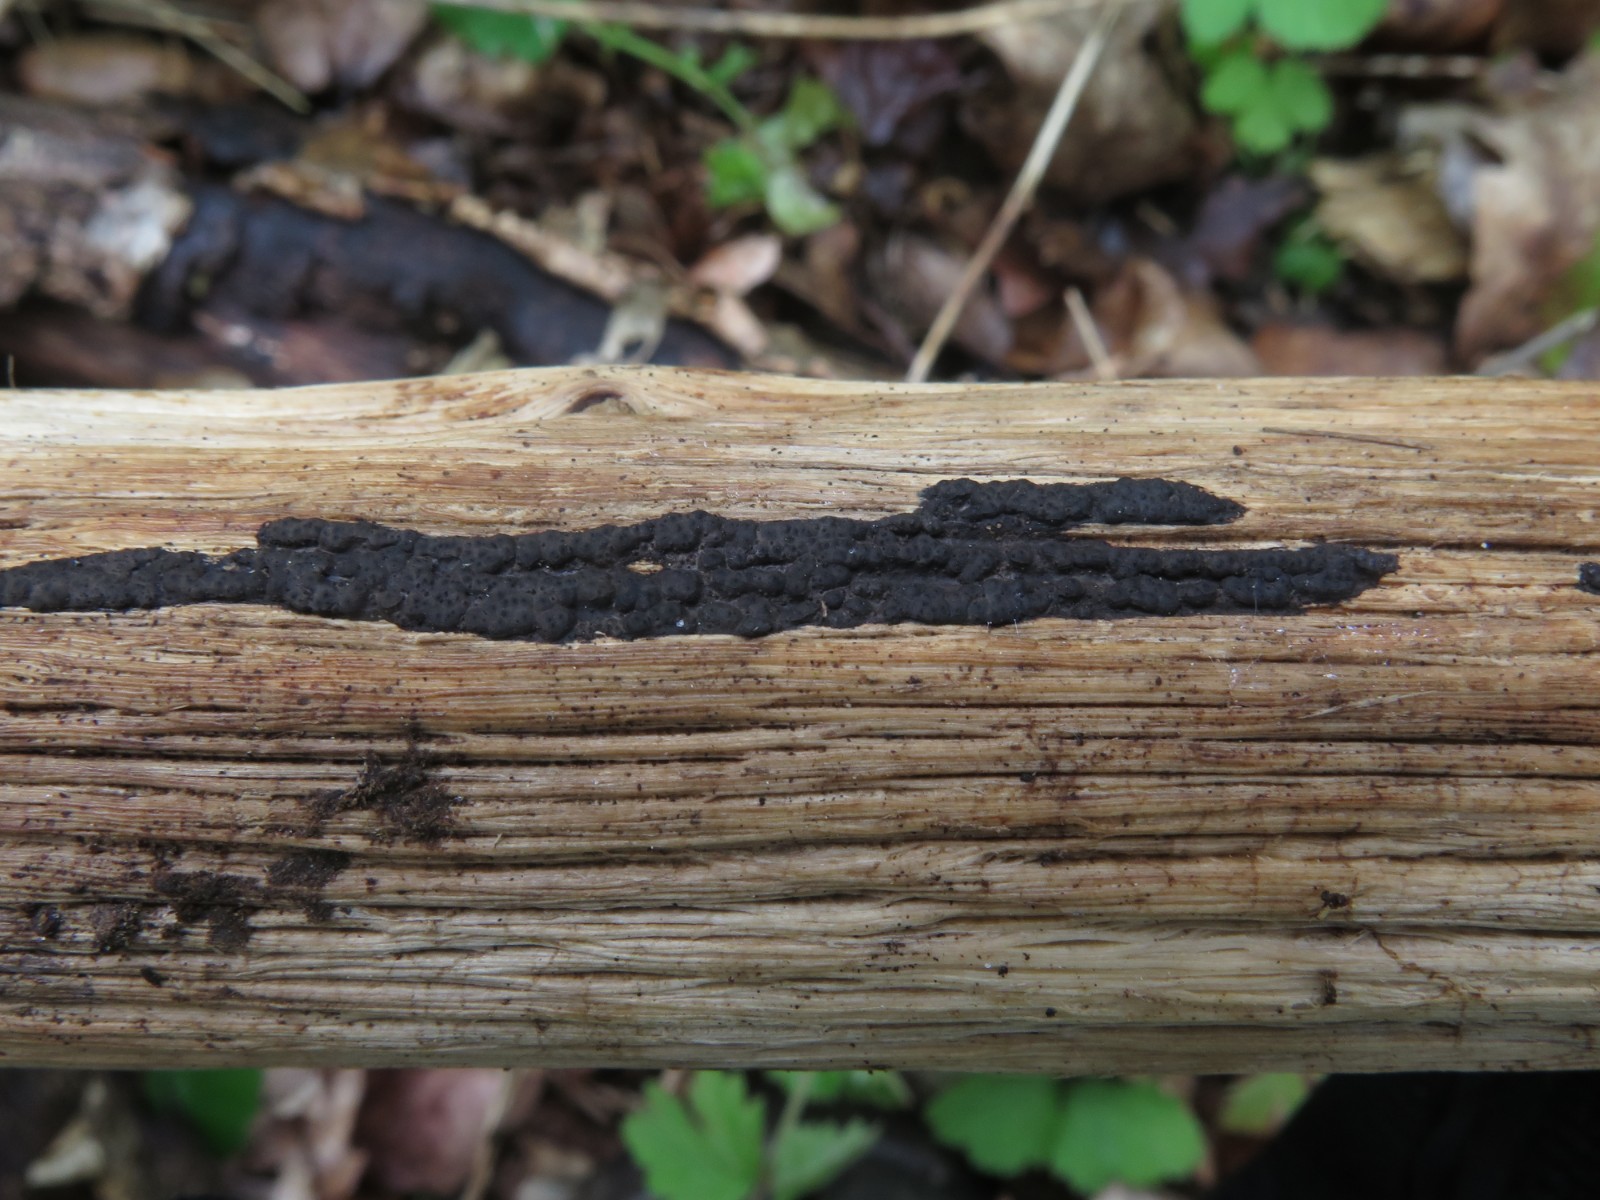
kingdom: Fungi
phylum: Ascomycota
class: Sordariomycetes
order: Xylariales
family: Xylariaceae
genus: Nemania
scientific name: Nemania serpens
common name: almindelig kuldyne
